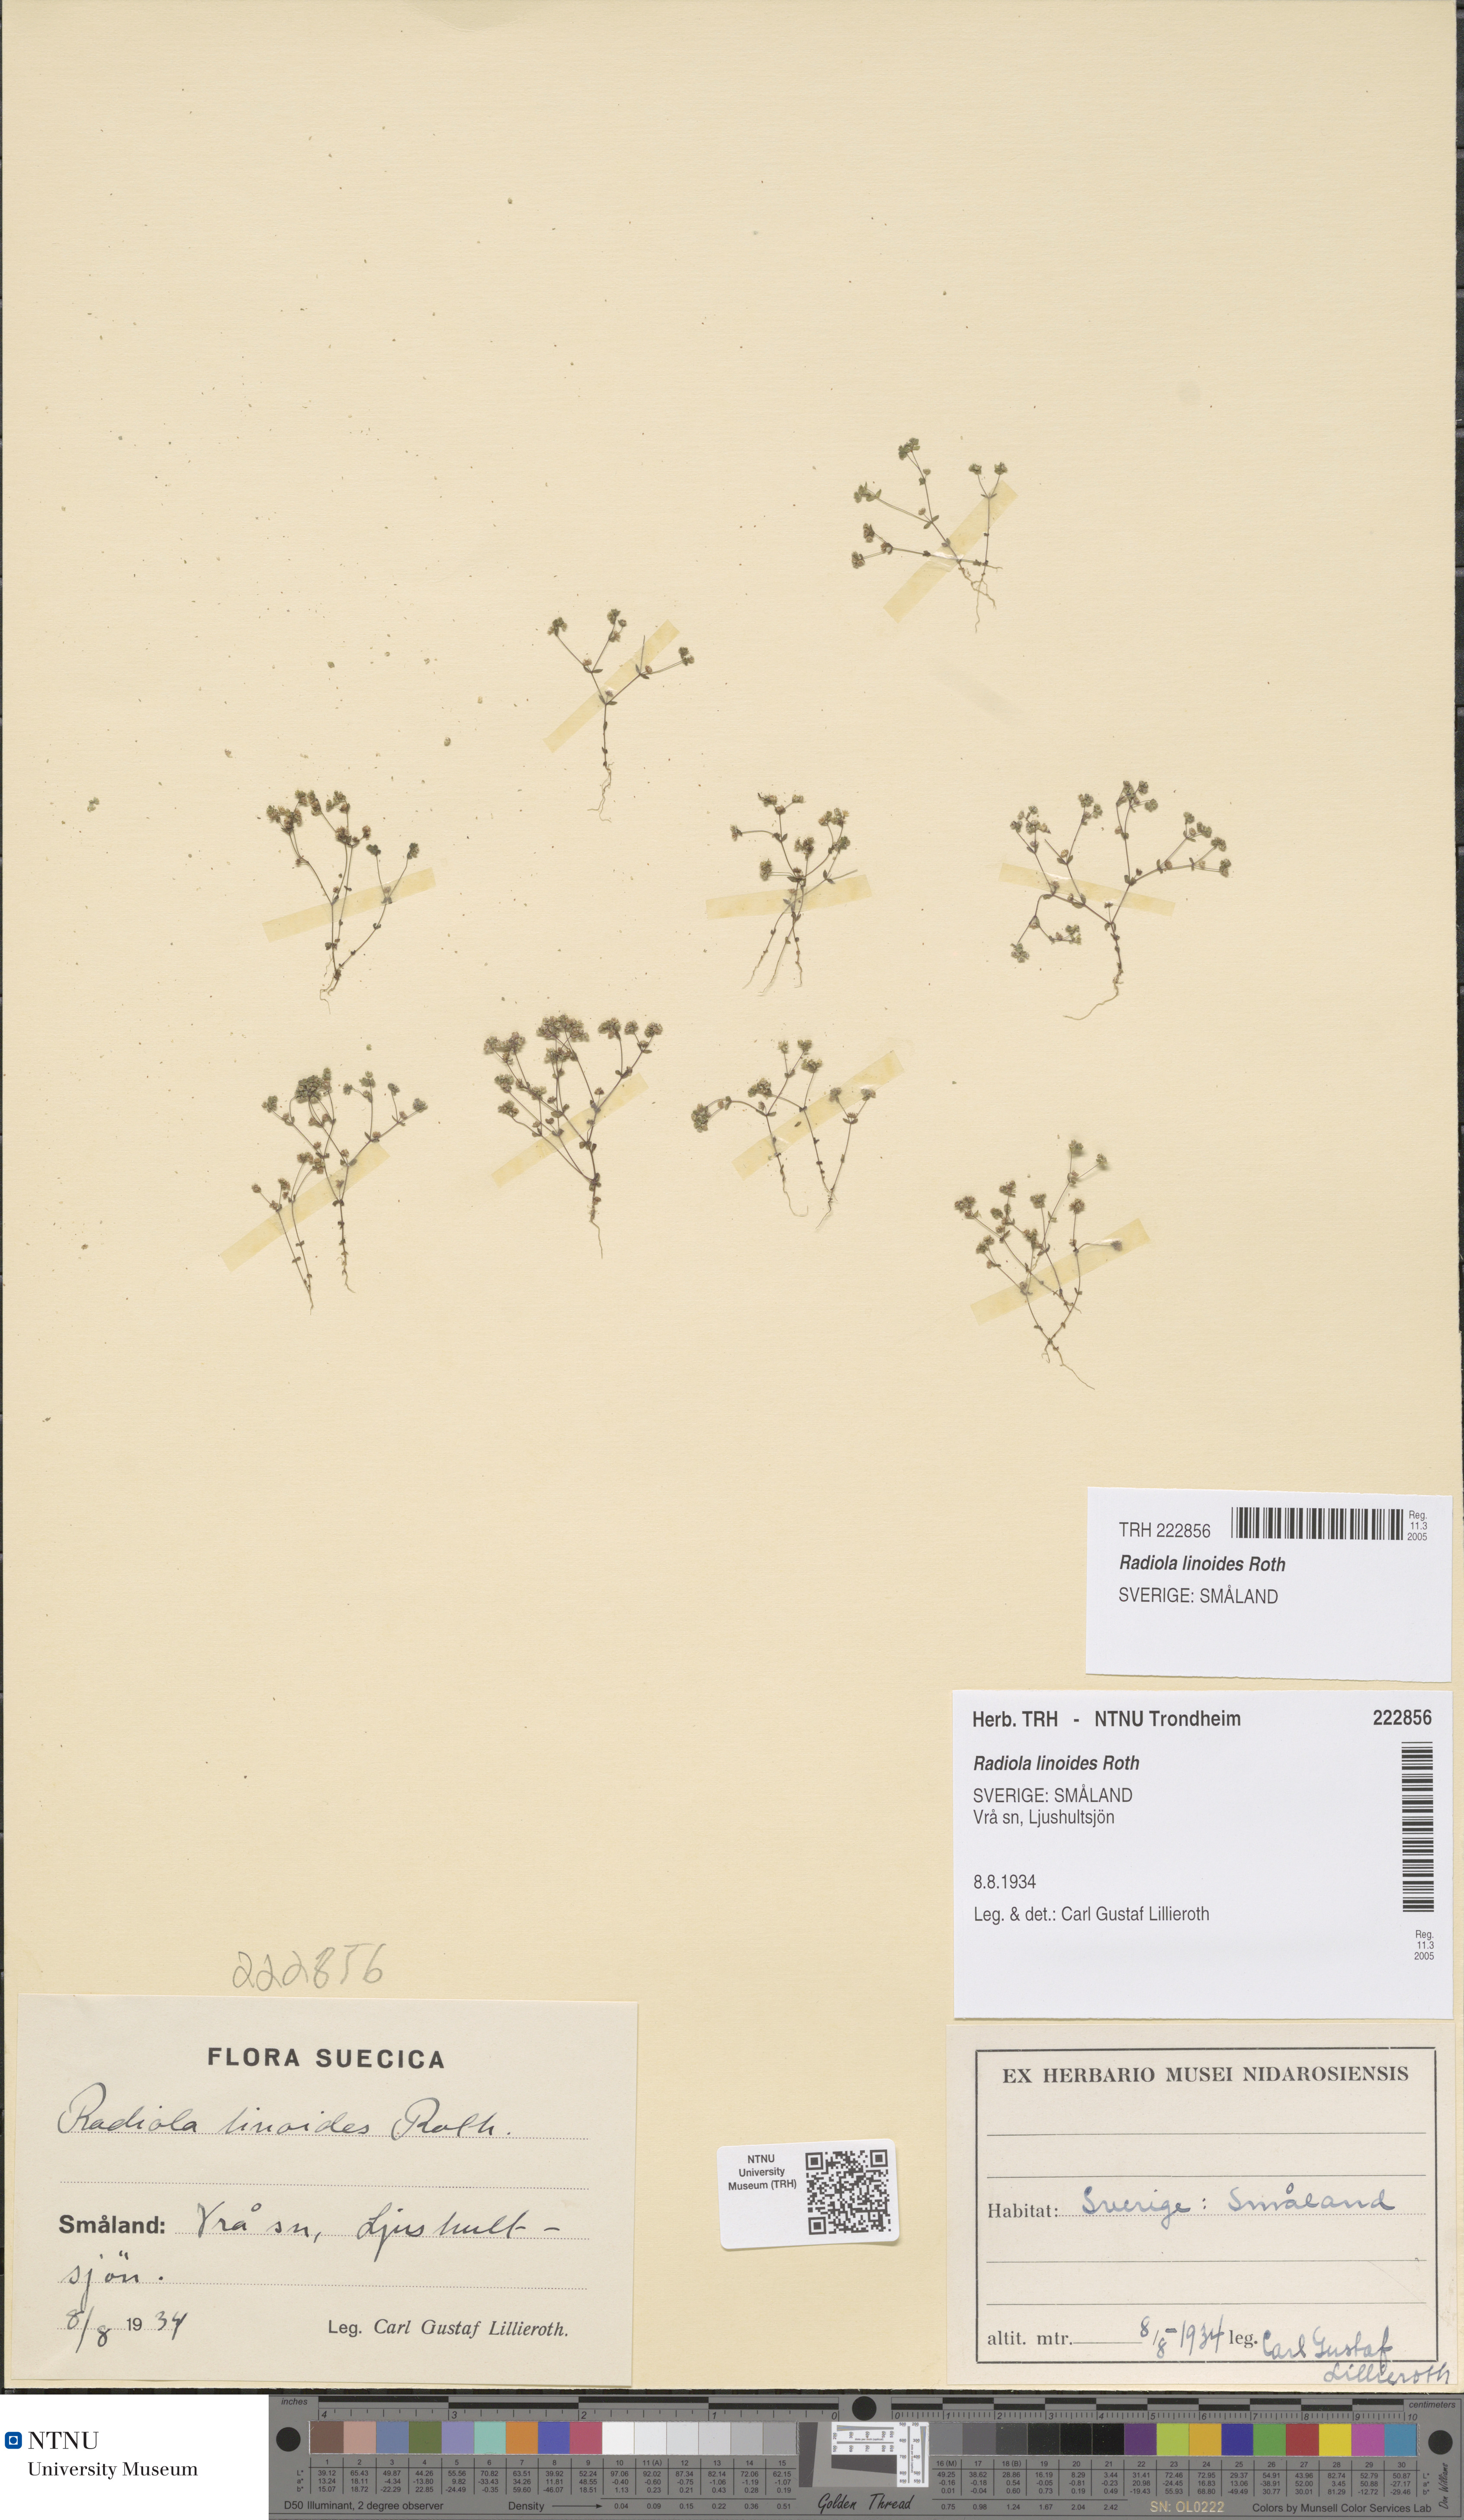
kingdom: Plantae
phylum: Tracheophyta
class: Magnoliopsida
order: Malpighiales
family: Linaceae
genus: Radiola
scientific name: Radiola linoides
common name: Allseed
